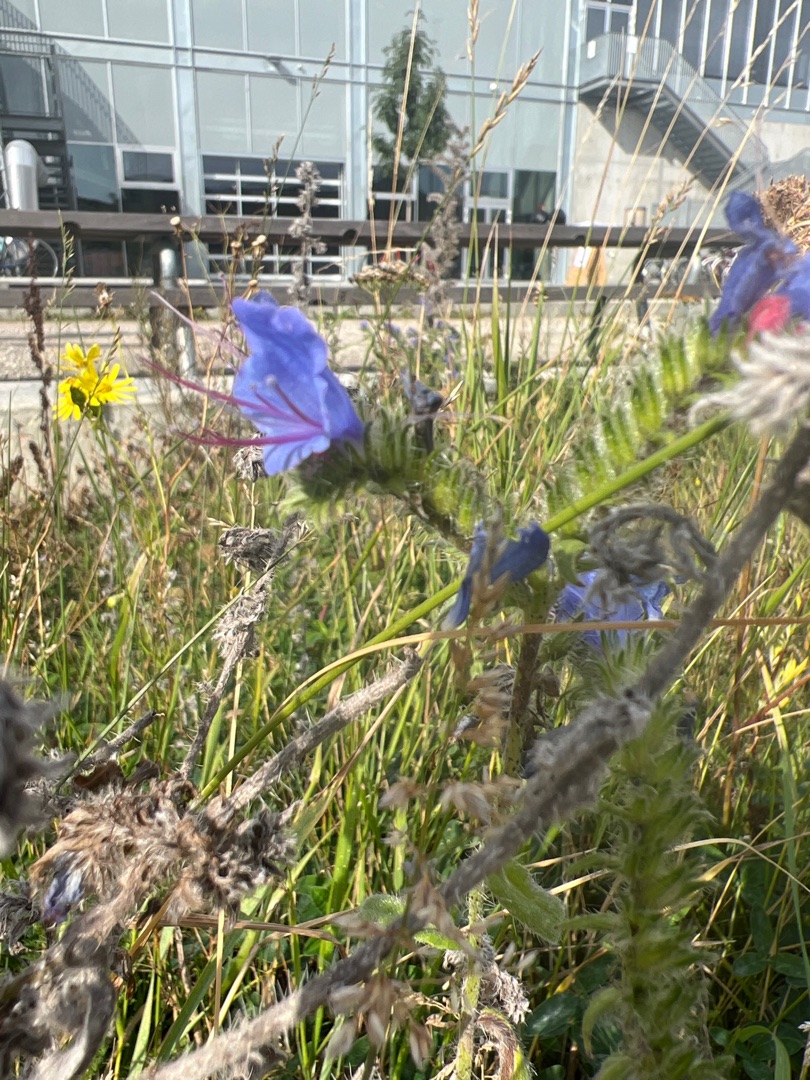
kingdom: Plantae
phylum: Tracheophyta
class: Magnoliopsida
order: Boraginales
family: Boraginaceae
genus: Echium
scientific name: Echium vulgare
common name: Slangehoved
